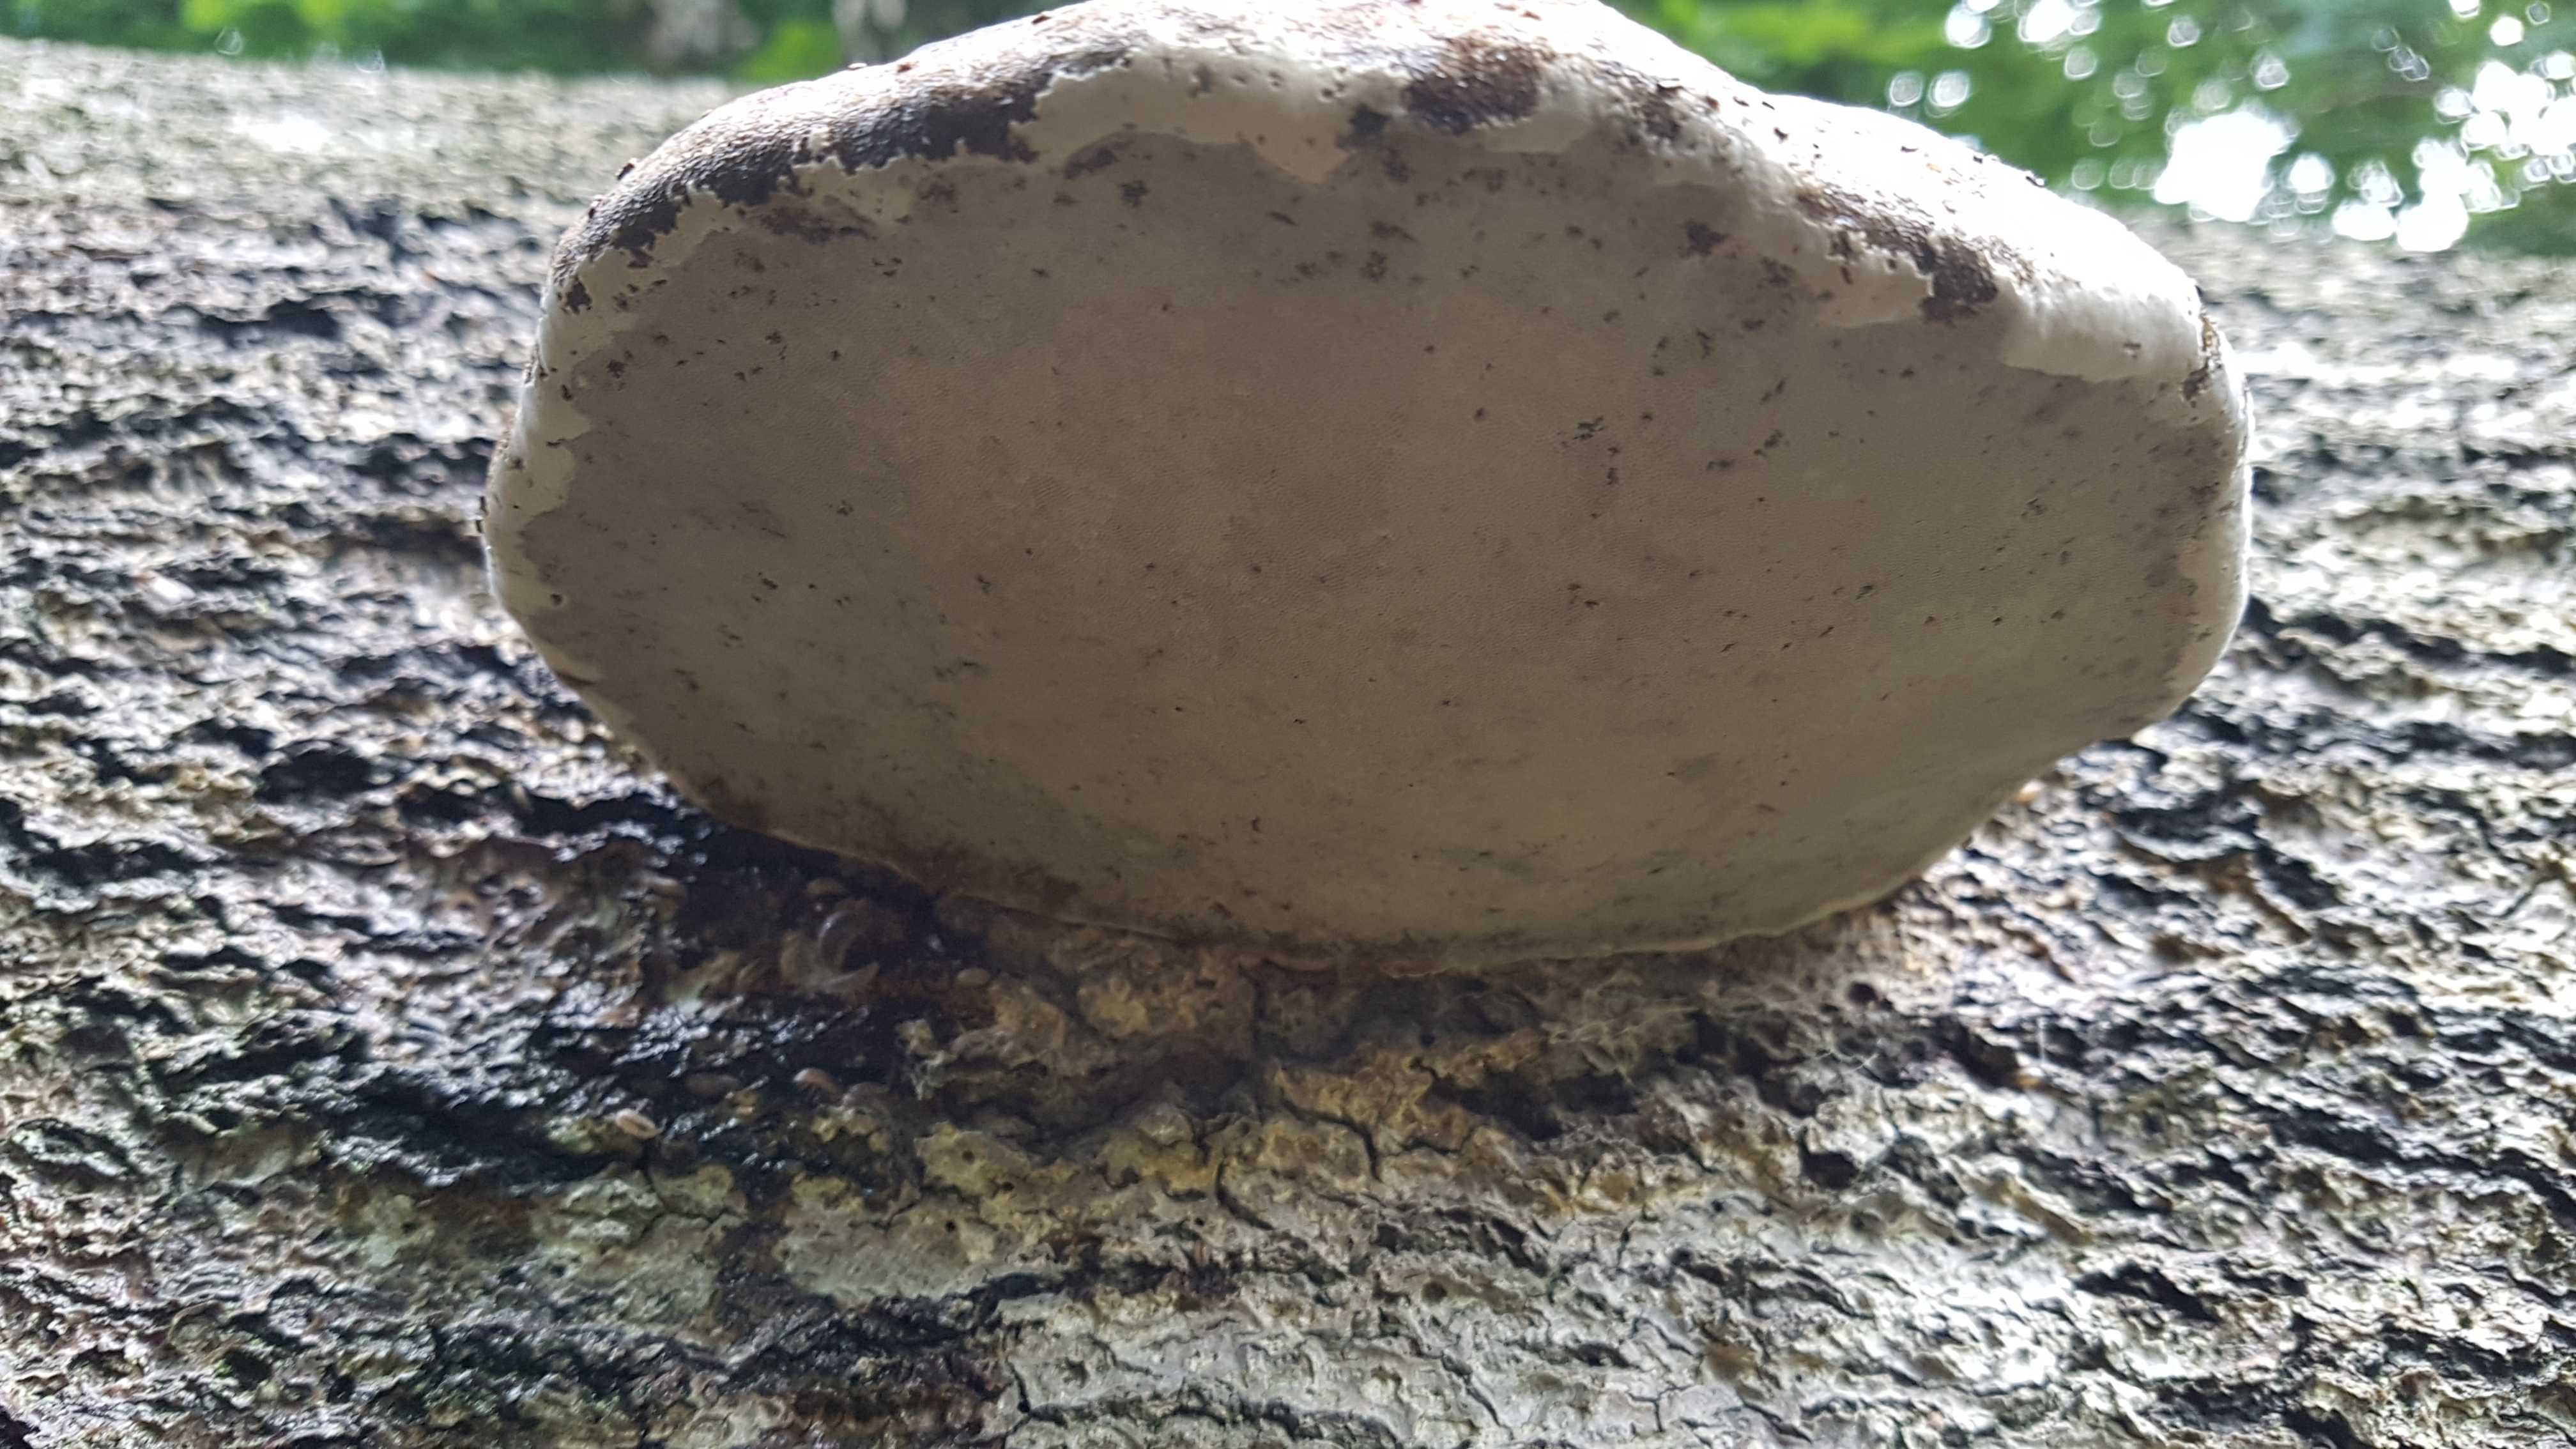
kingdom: Fungi
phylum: Basidiomycota
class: Agaricomycetes
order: Polyporales
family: Polyporaceae
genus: Fomes
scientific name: Fomes fomentarius
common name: tøndersvamp
